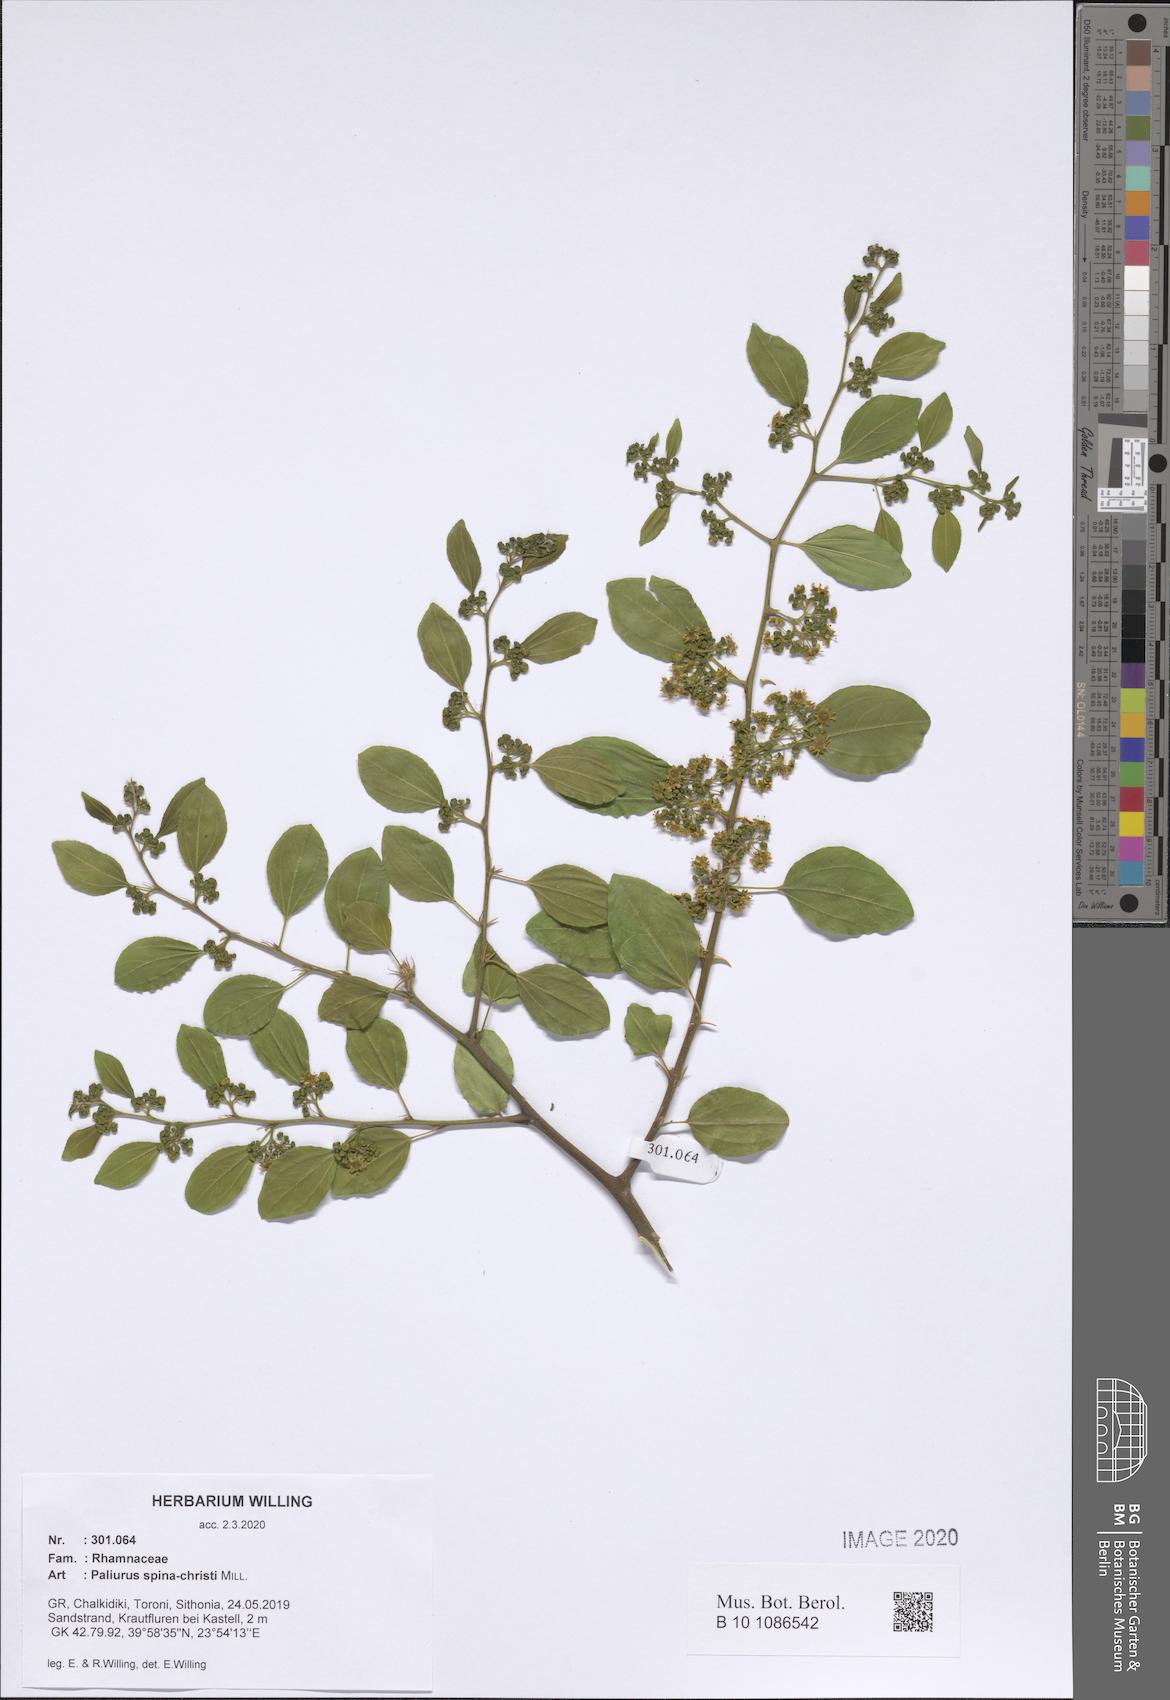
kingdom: Plantae
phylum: Tracheophyta
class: Magnoliopsida
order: Rosales
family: Rhamnaceae
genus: Paliurus
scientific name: Paliurus spina-christi
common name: Jeruselem thorn
